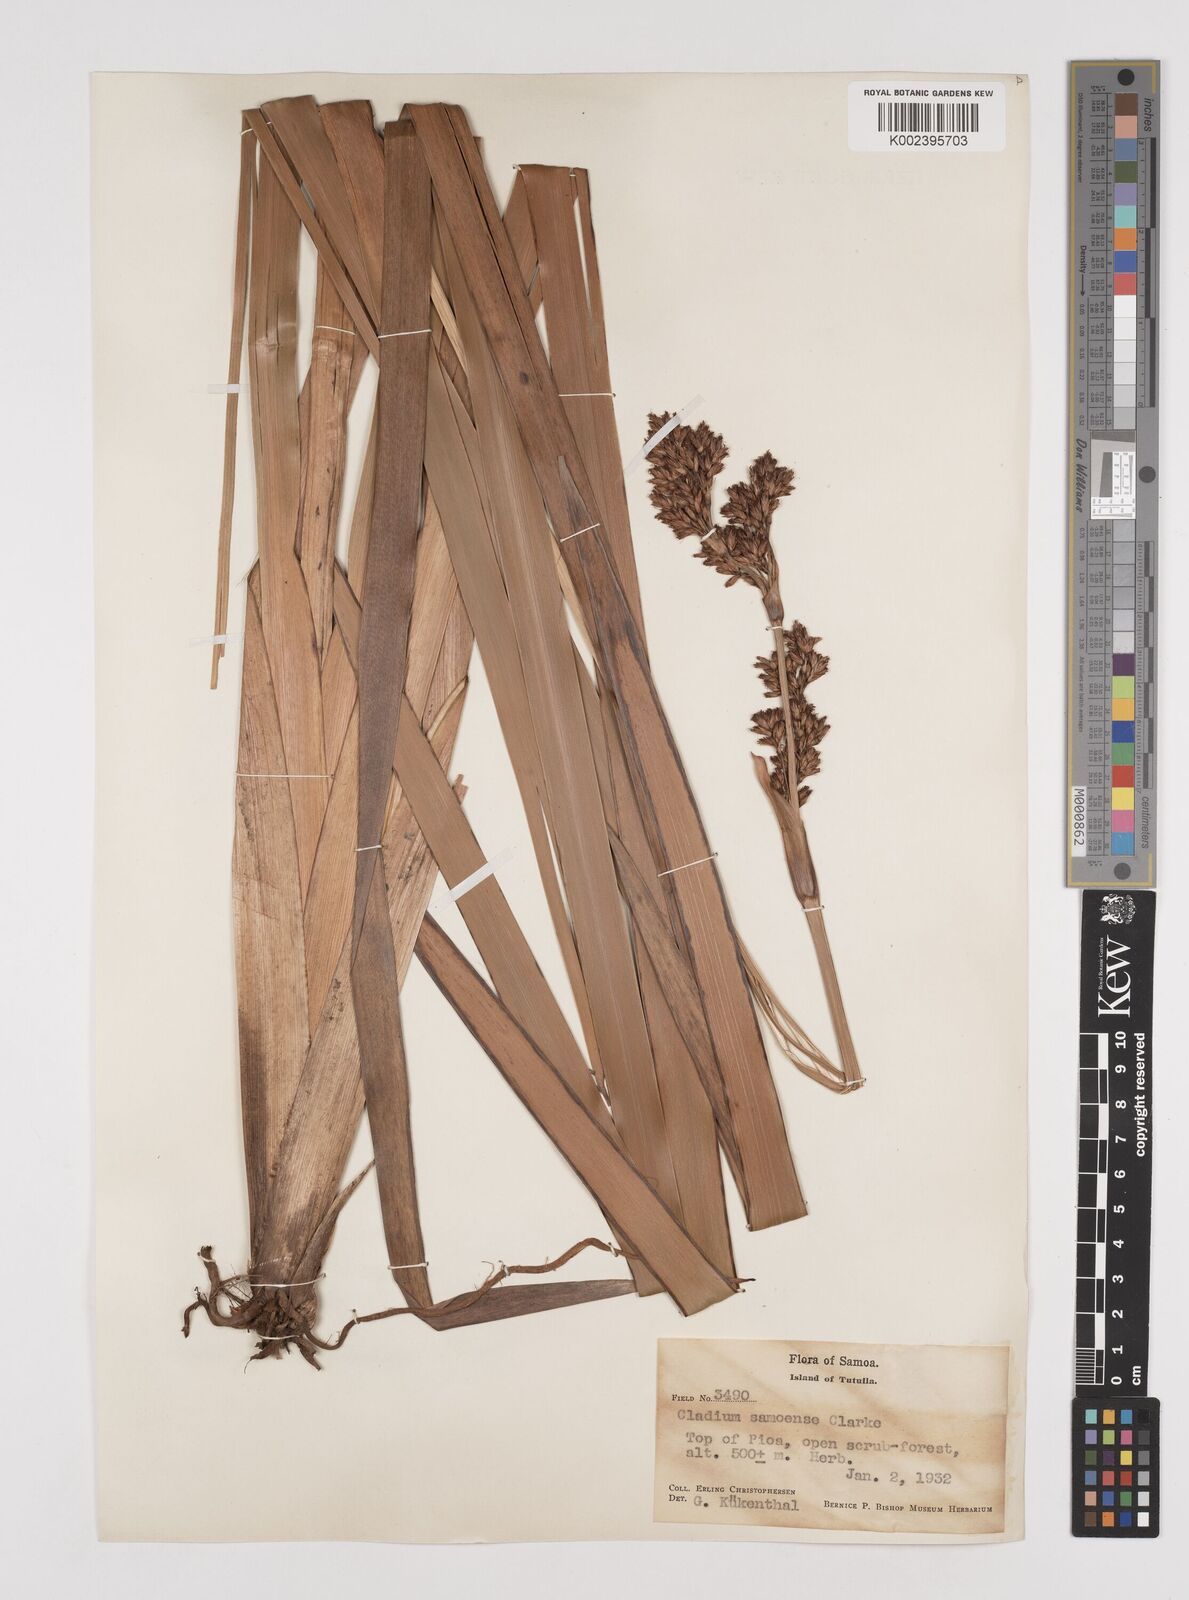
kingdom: Plantae
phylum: Tracheophyta
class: Liliopsida
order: Poales
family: Cyperaceae
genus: Machaerina
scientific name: Machaerina falcata
